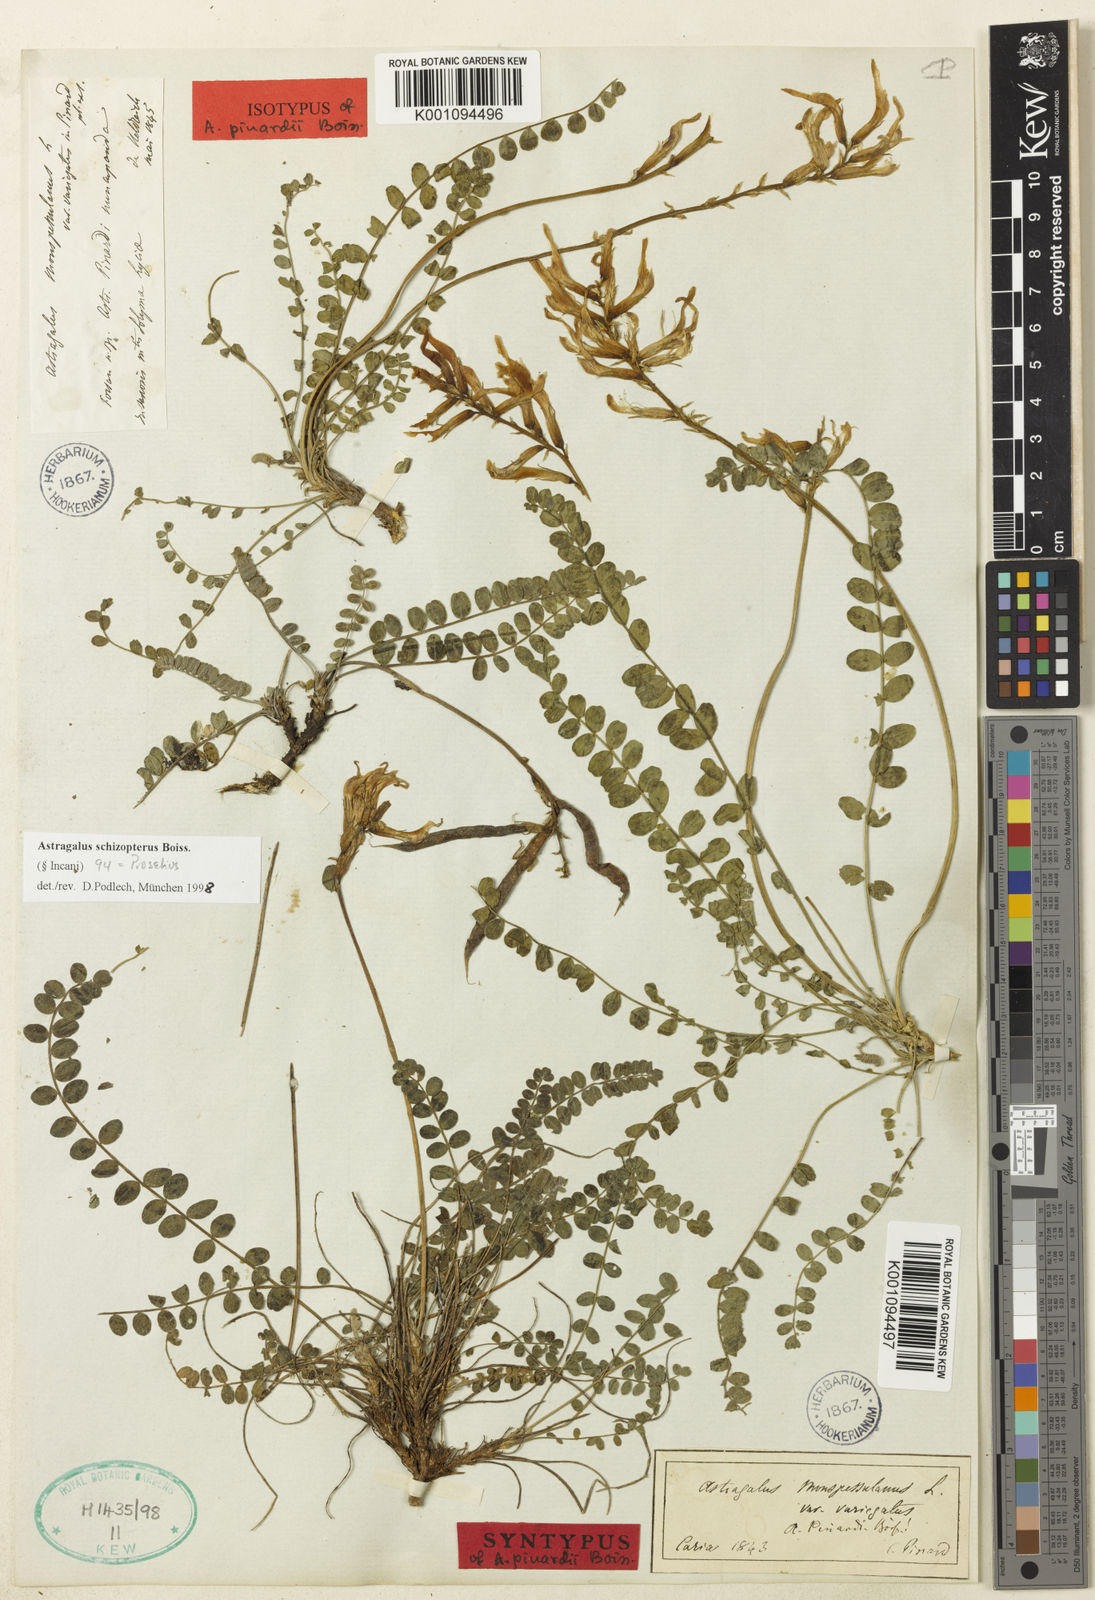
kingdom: Plantae
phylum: Tracheophyta
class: Magnoliopsida
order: Fabales
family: Fabaceae
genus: Astragalus
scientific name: Astragalus
